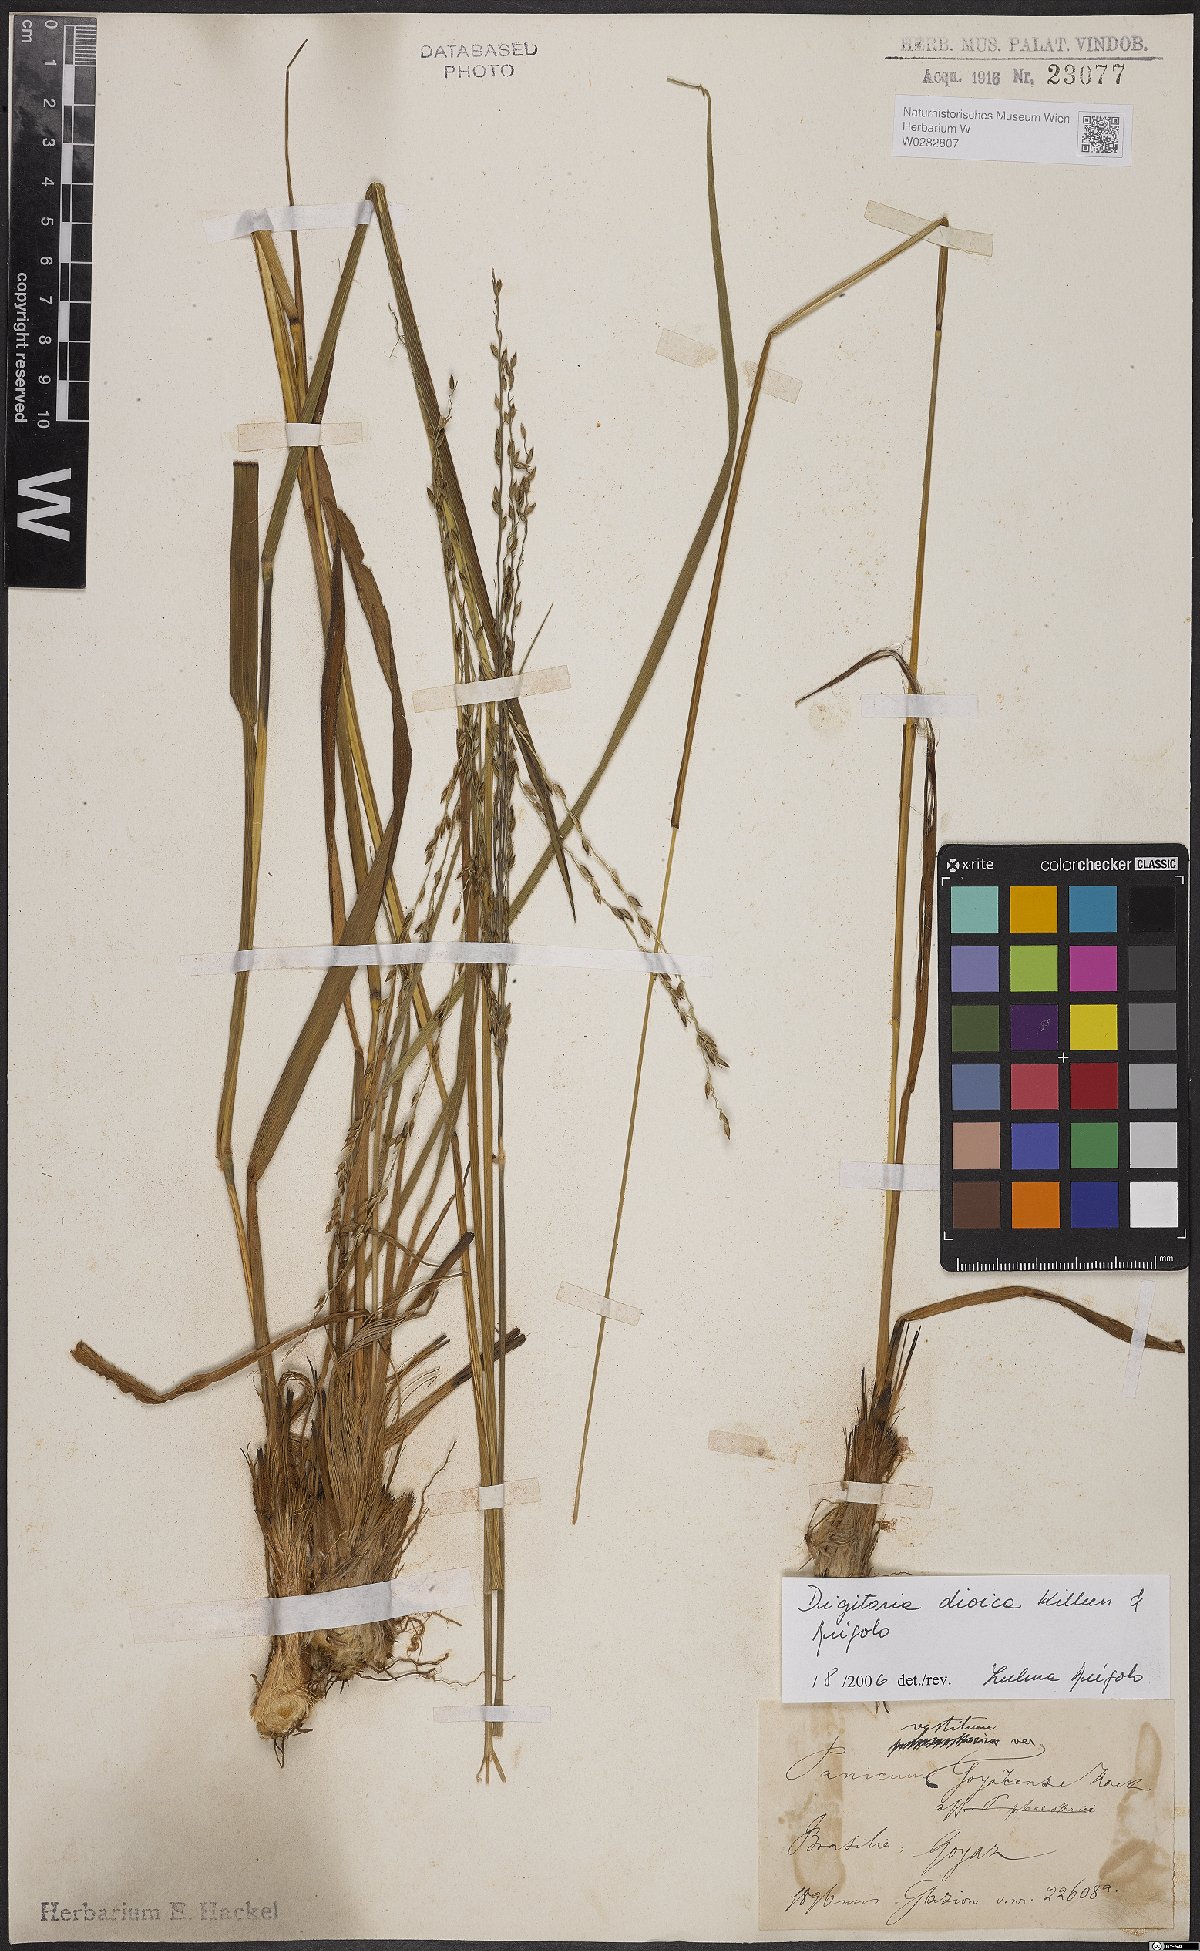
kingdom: Plantae
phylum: Tracheophyta
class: Liliopsida
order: Poales
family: Poaceae
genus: Digitaria
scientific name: Digitaria dioica
